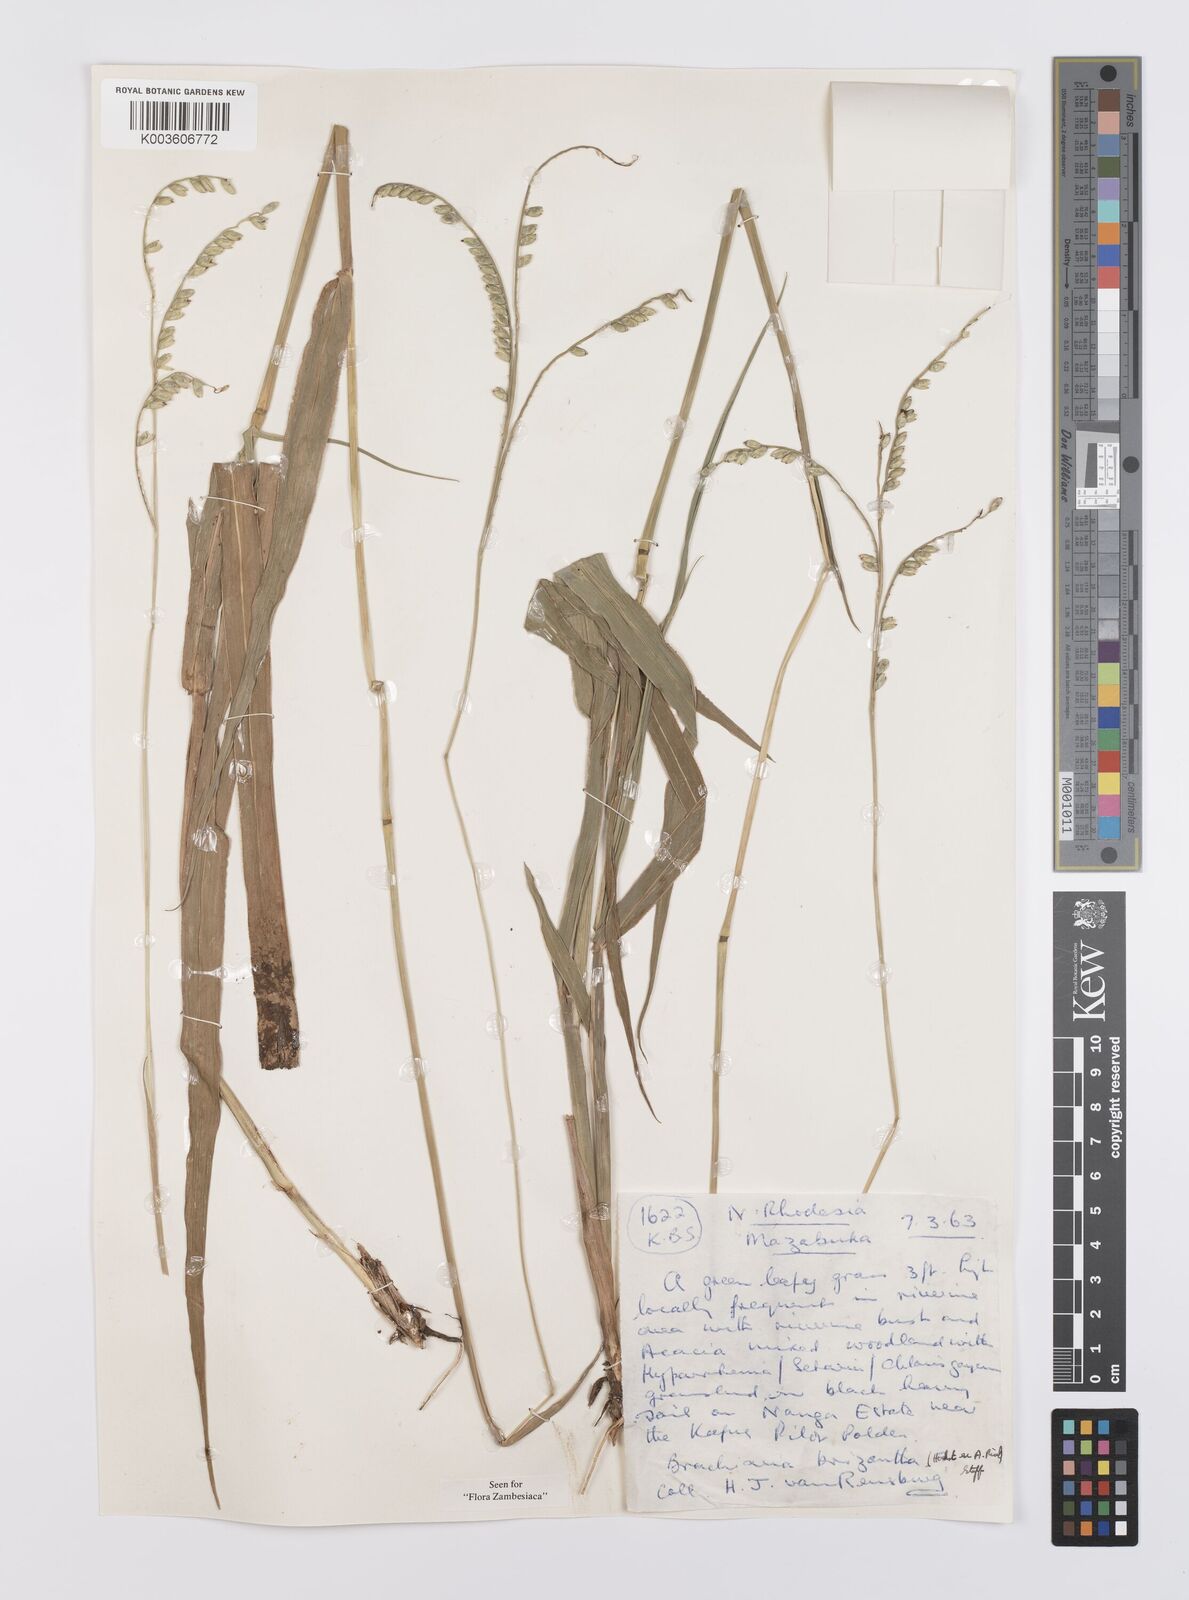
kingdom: Plantae
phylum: Tracheophyta
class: Liliopsida
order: Poales
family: Poaceae
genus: Urochloa
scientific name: Urochloa brizantha
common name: Palisade signalgrass
